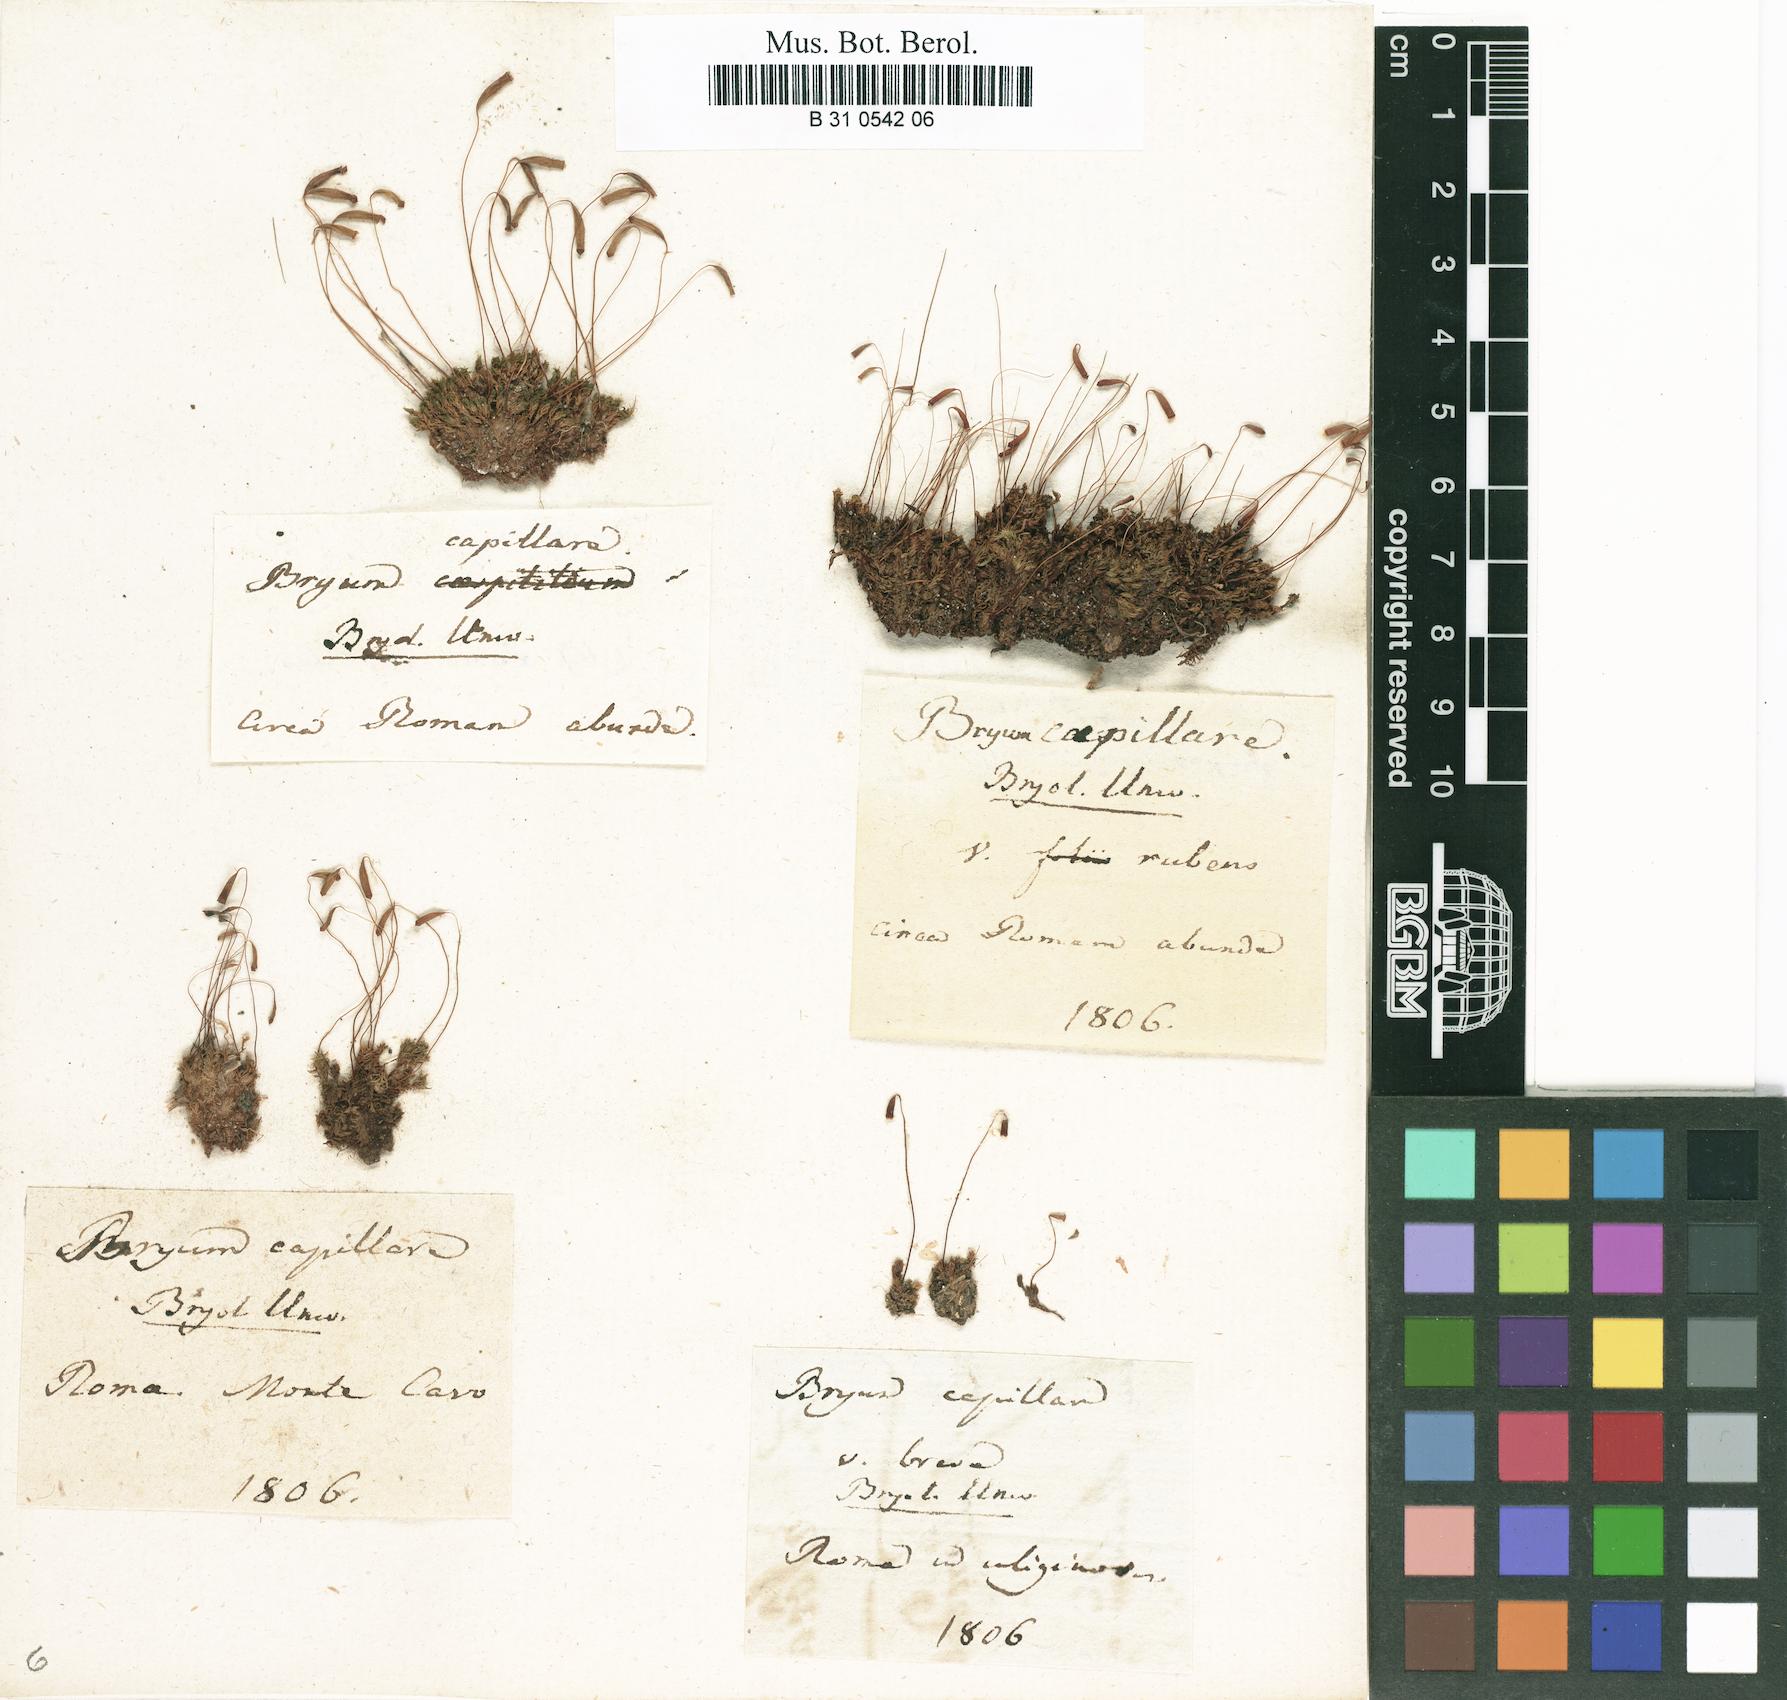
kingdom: Plantae
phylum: Bryophyta
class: Bryopsida
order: Bryales
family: Bryaceae
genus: Rosulabryum
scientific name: Rosulabryum capillare
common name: Capillary thread-moss
